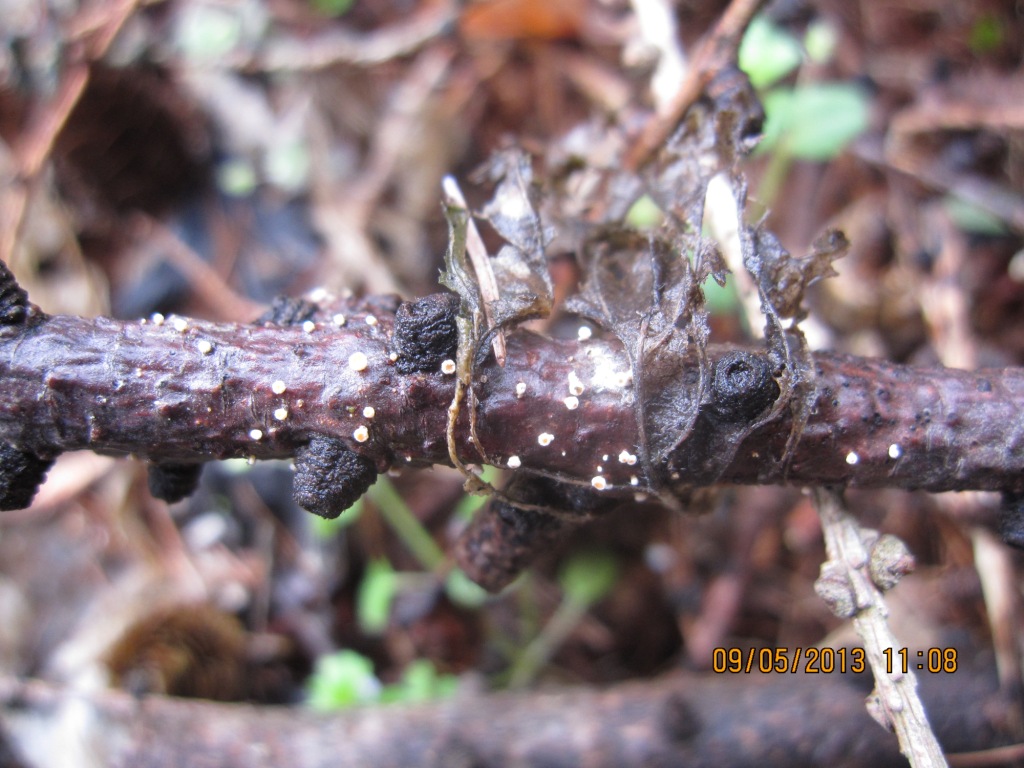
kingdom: Fungi
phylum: Ascomycota
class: Leotiomycetes
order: Helotiales
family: Lachnaceae
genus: Lachnellula
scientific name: Lachnellula occidentalis
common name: Larch disco
